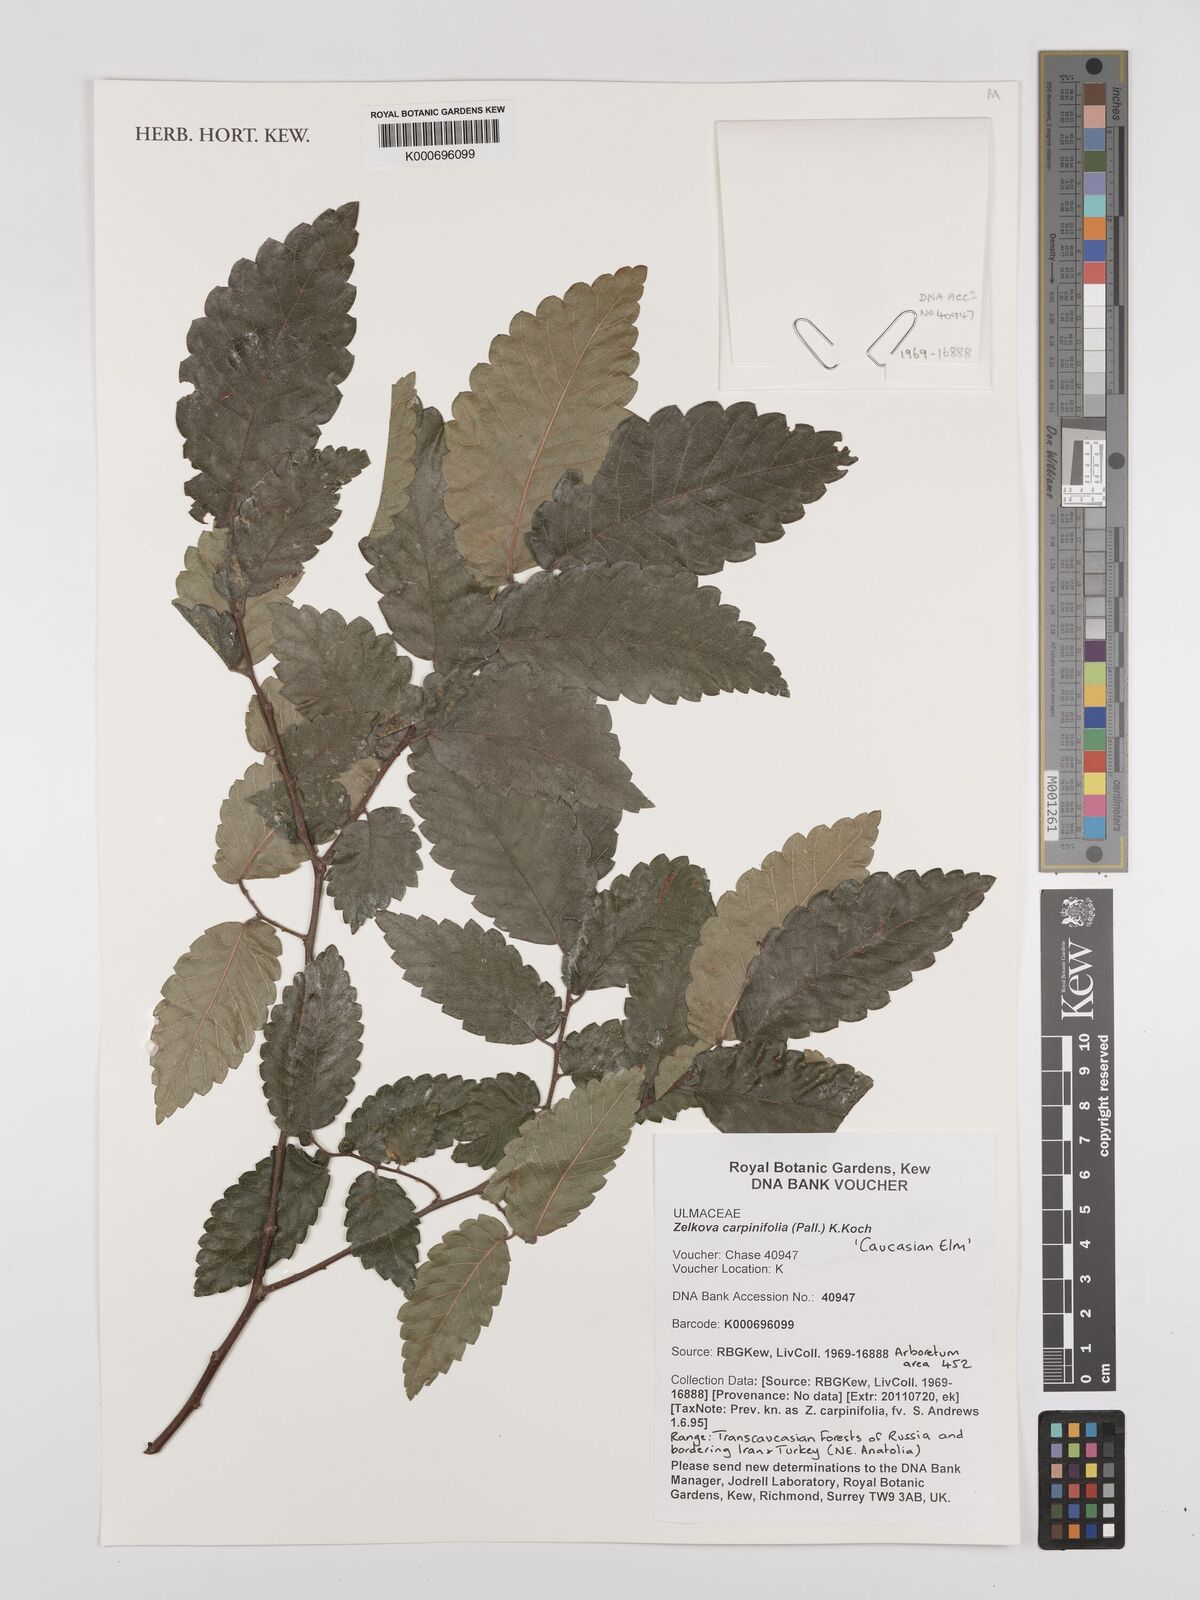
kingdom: Plantae
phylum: Tracheophyta
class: Magnoliopsida
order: Rosales
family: Ulmaceae
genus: Zelkova
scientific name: Zelkova carpinifolia
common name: Caucasian elm
